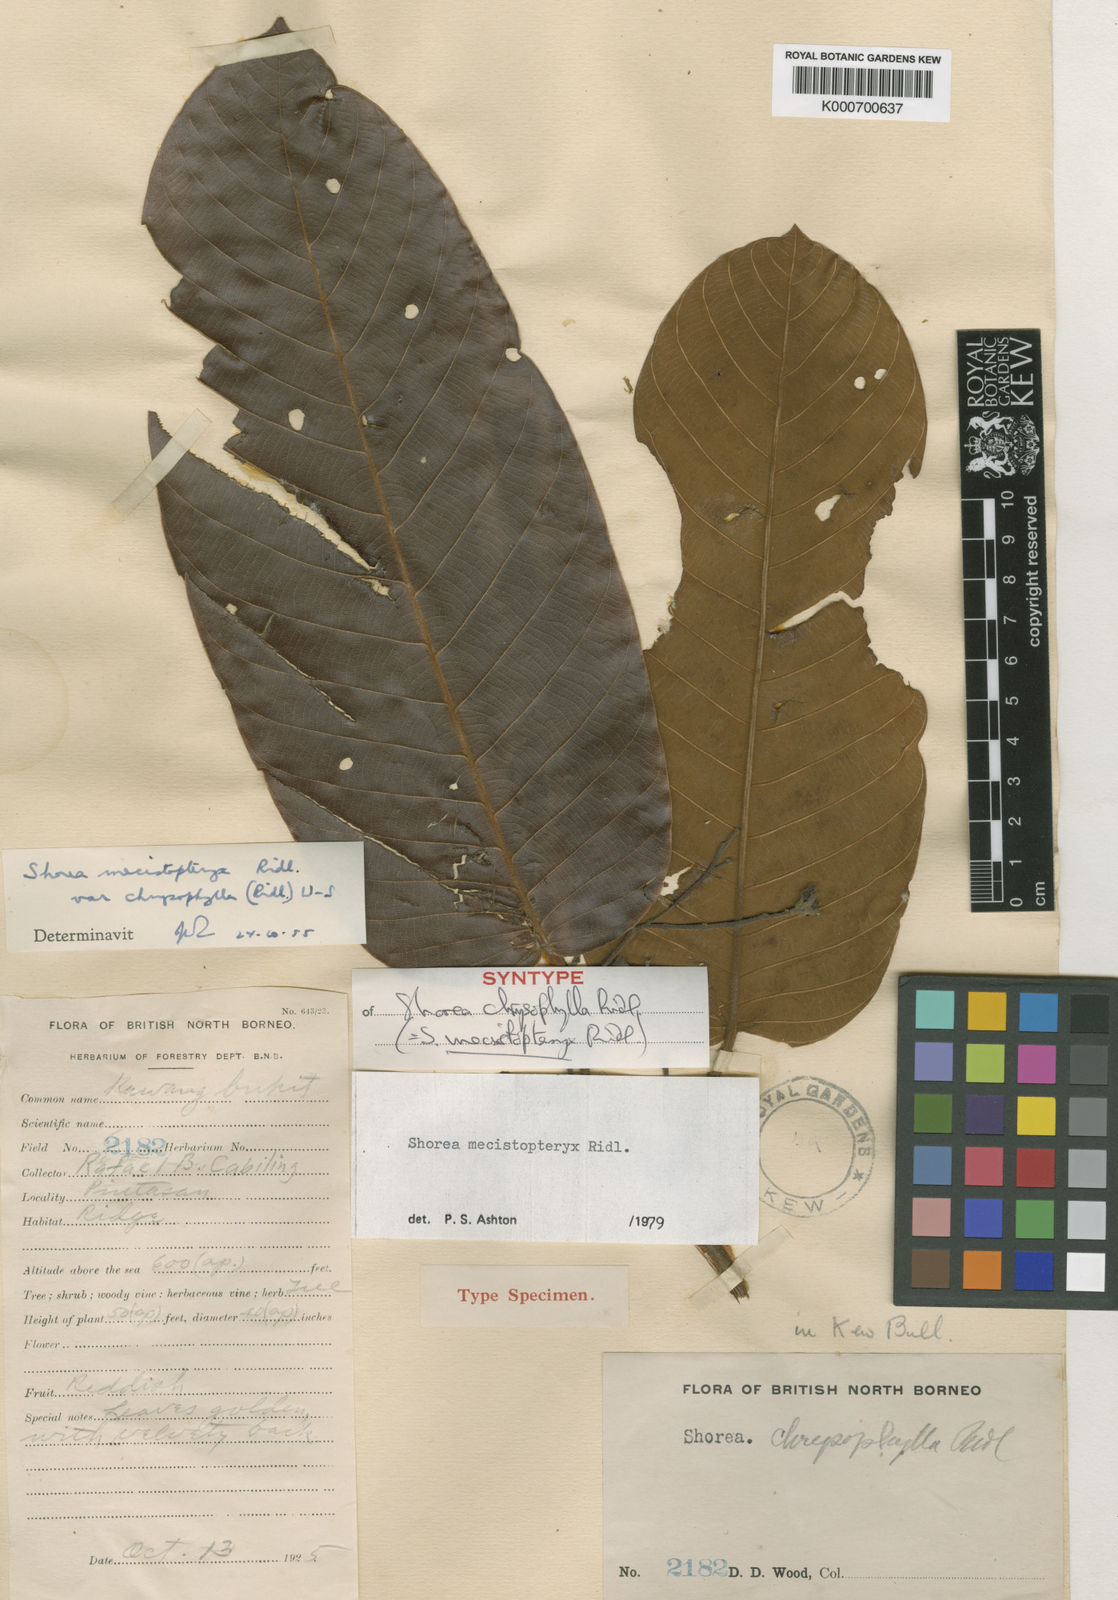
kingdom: Plantae
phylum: Tracheophyta
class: Magnoliopsida
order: Malvales
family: Dipterocarpaceae
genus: Shorea
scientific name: Shorea mecistopteryx
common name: Red meranti
